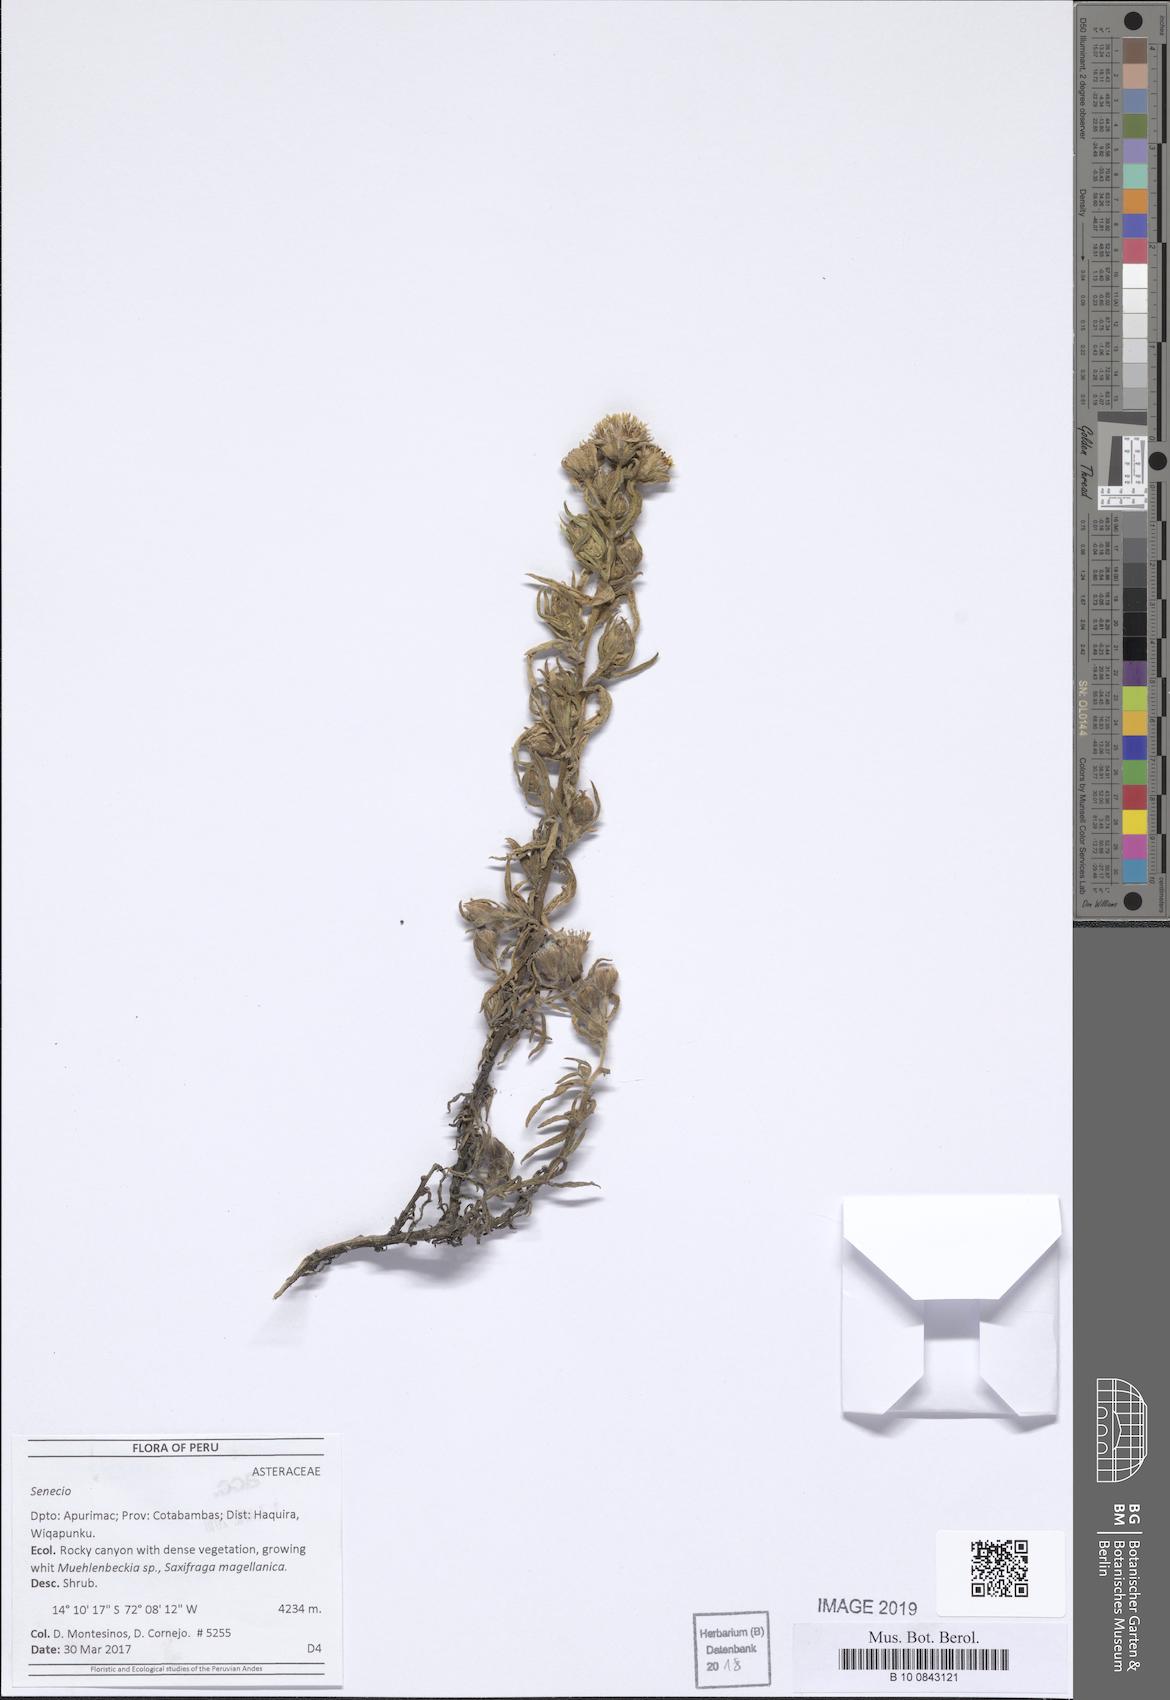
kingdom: Plantae
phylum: Tracheophyta
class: Magnoliopsida
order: Asterales
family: Asteraceae
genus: Senecio
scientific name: Senecio adenophyllus
